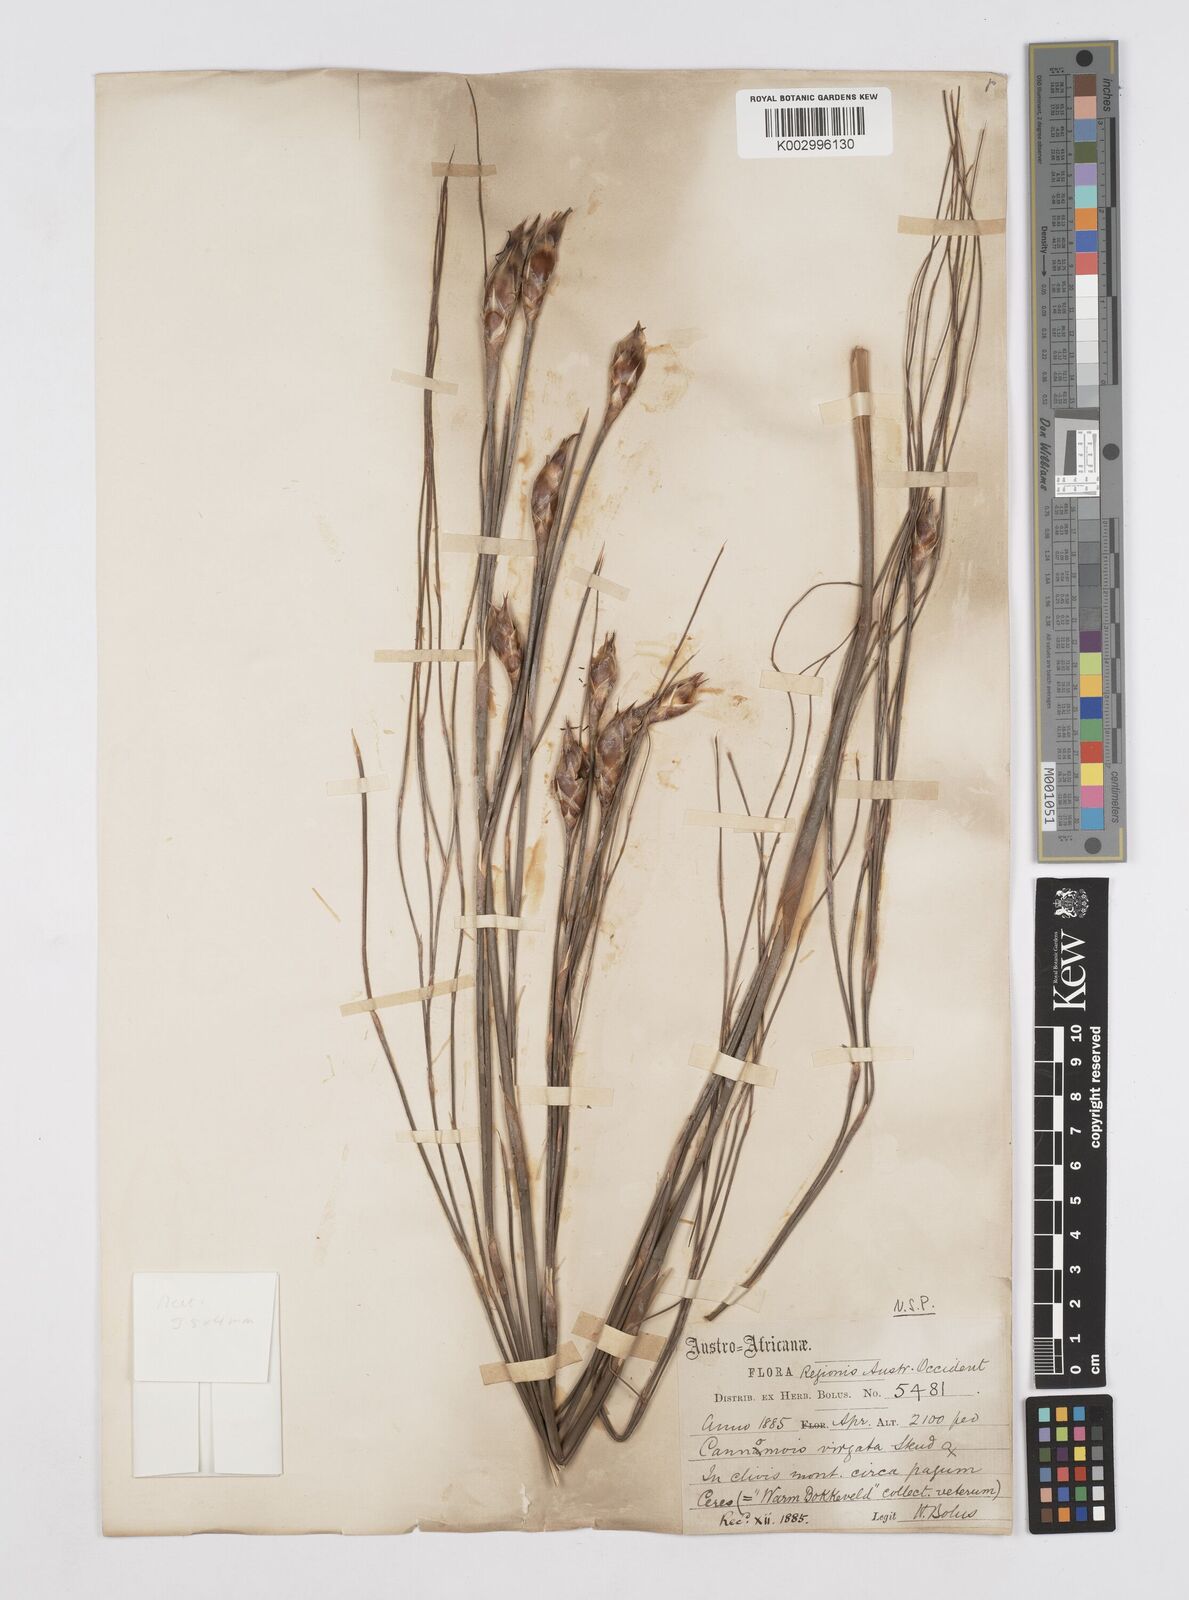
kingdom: Plantae
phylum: Tracheophyta
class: Liliopsida
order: Poales
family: Restionaceae
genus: Cannomois
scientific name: Cannomois virgata
